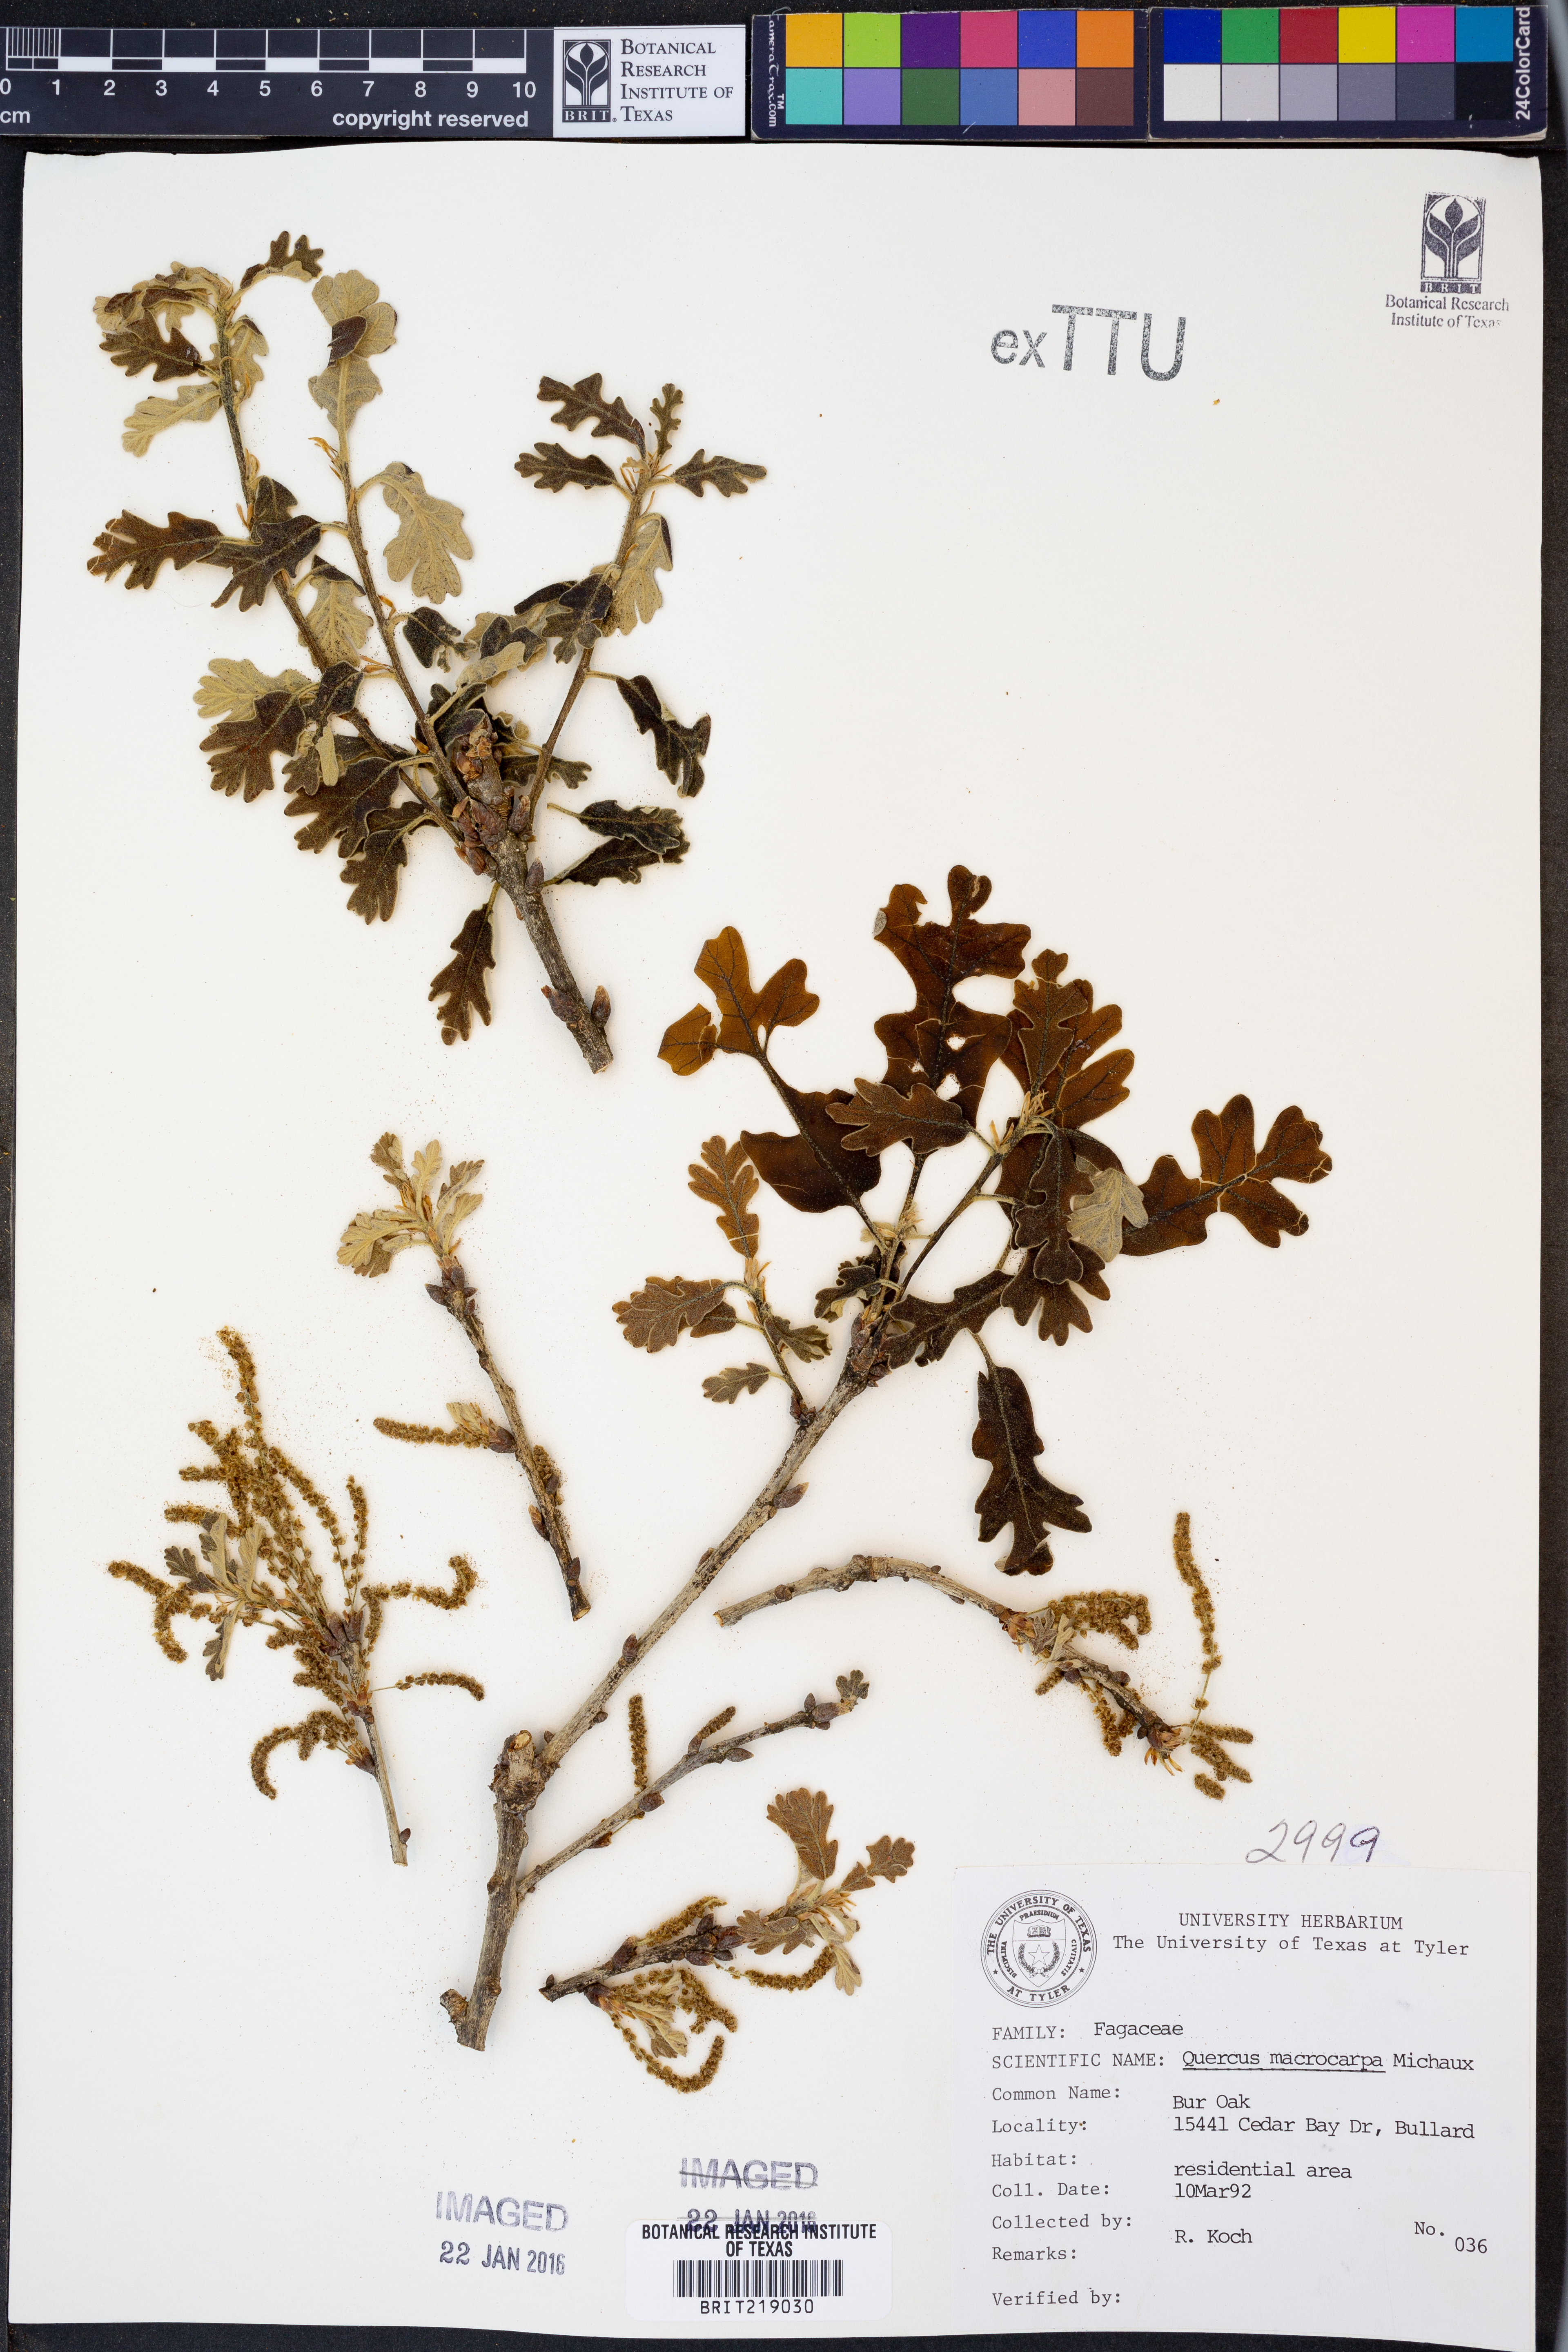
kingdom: Plantae
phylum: Tracheophyta
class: Magnoliopsida
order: Fagales
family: Fagaceae
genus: Quercus
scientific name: Quercus macrocarpa
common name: Bur oak
